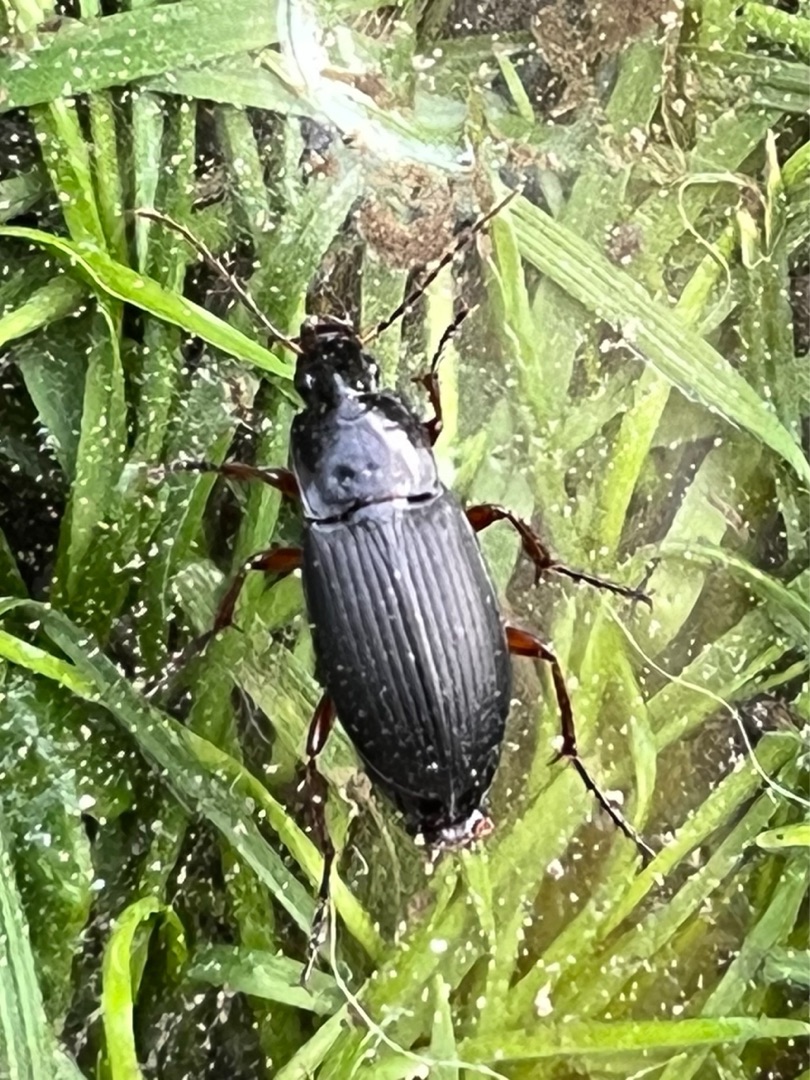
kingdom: Animalia
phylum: Arthropoda
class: Insecta
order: Coleoptera
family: Carabidae
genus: Calathus
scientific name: Calathus fuscipes
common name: Stor torpedoløber
